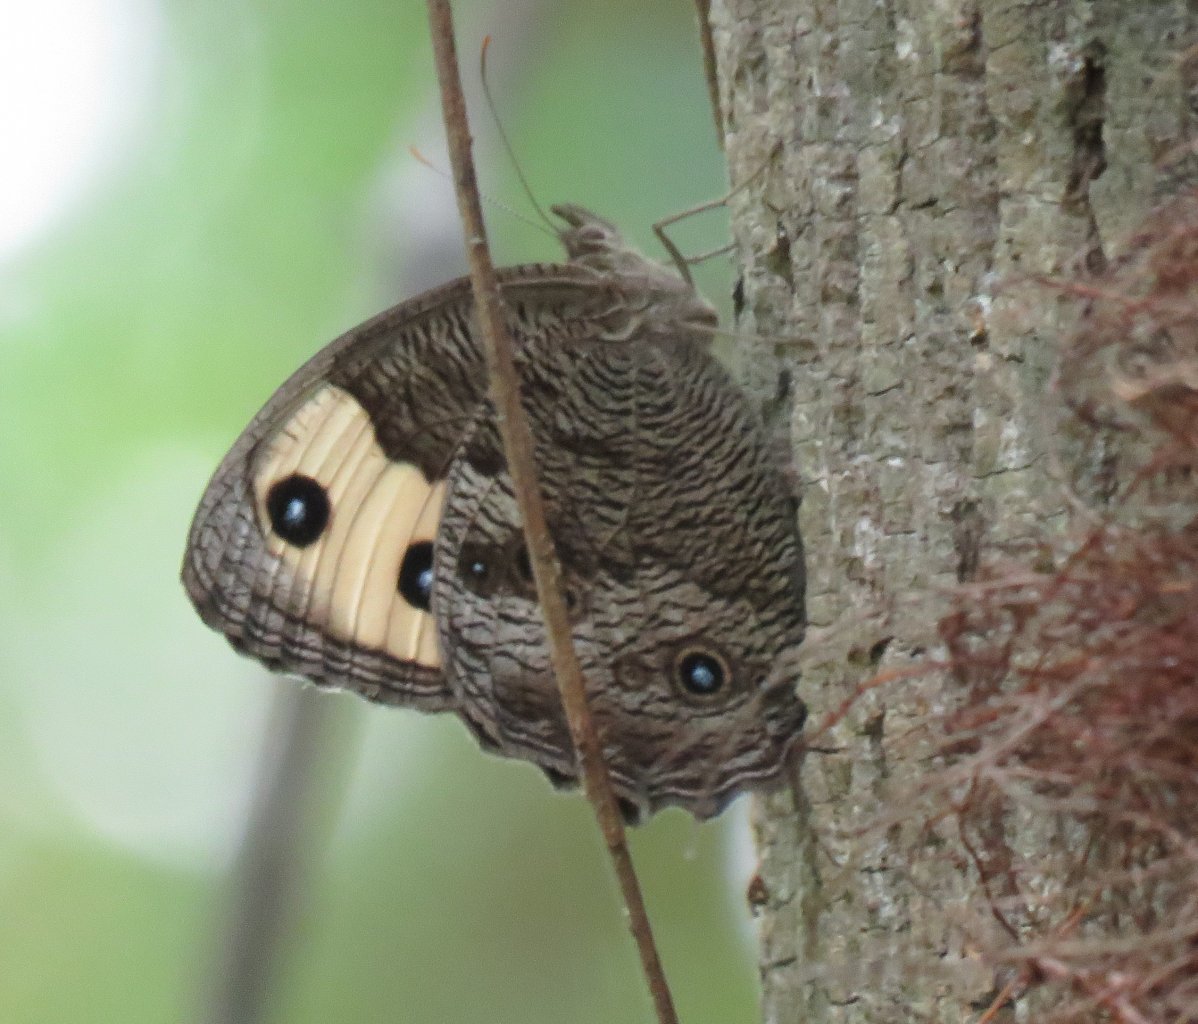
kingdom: Animalia
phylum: Arthropoda
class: Insecta
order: Lepidoptera
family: Nymphalidae
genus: Cercyonis
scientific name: Cercyonis pegala
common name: Common Wood-Nymph
